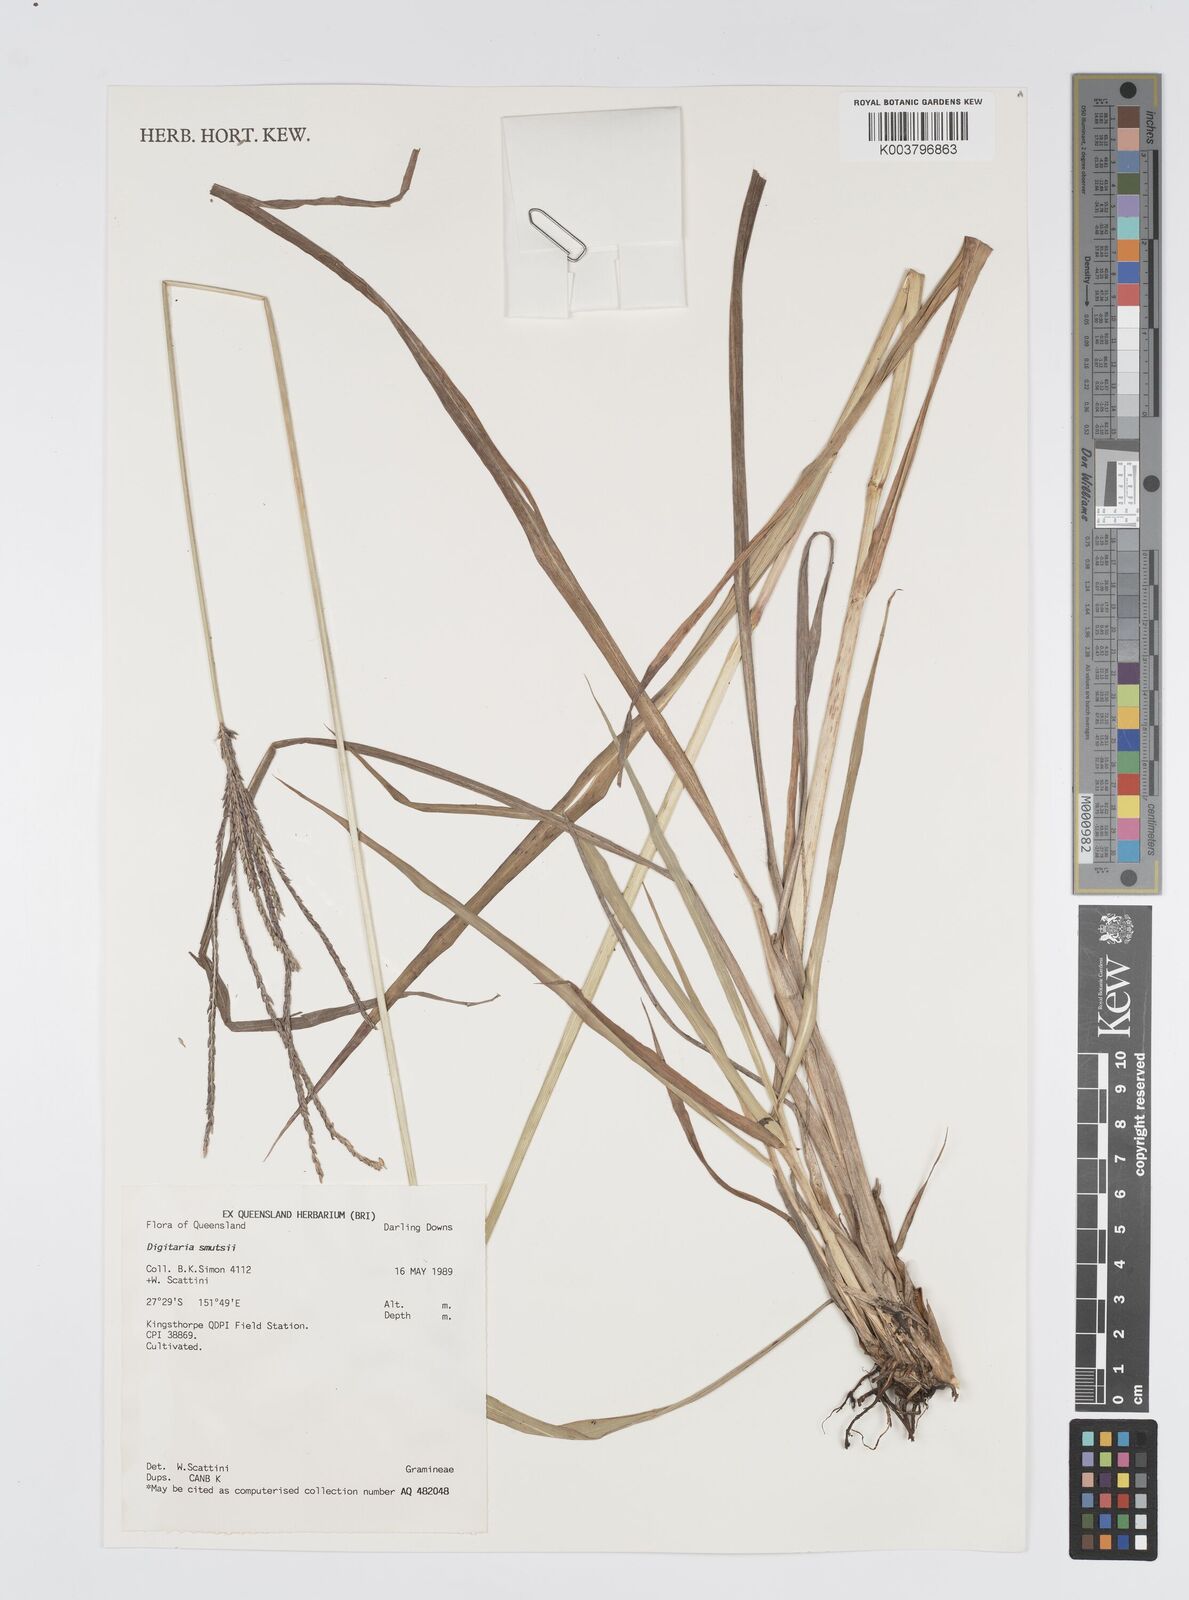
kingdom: Plantae
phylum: Tracheophyta
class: Liliopsida
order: Poales
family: Poaceae
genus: Digitaria
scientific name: Digitaria eriantha
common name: Digitgrass
